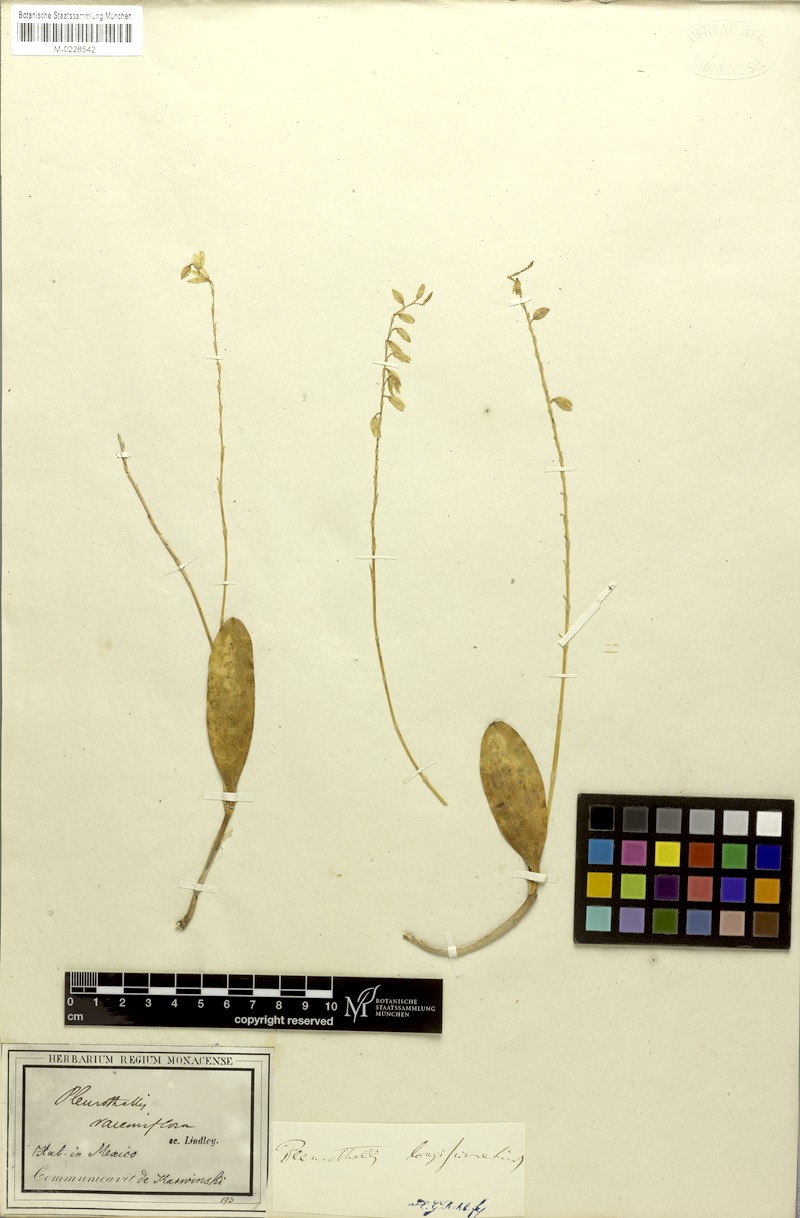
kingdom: Plantae
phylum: Tracheophyta
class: Liliopsida
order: Asparagales
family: Orchidaceae
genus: Pleurothallis
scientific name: Pleurothallis quadrifida
